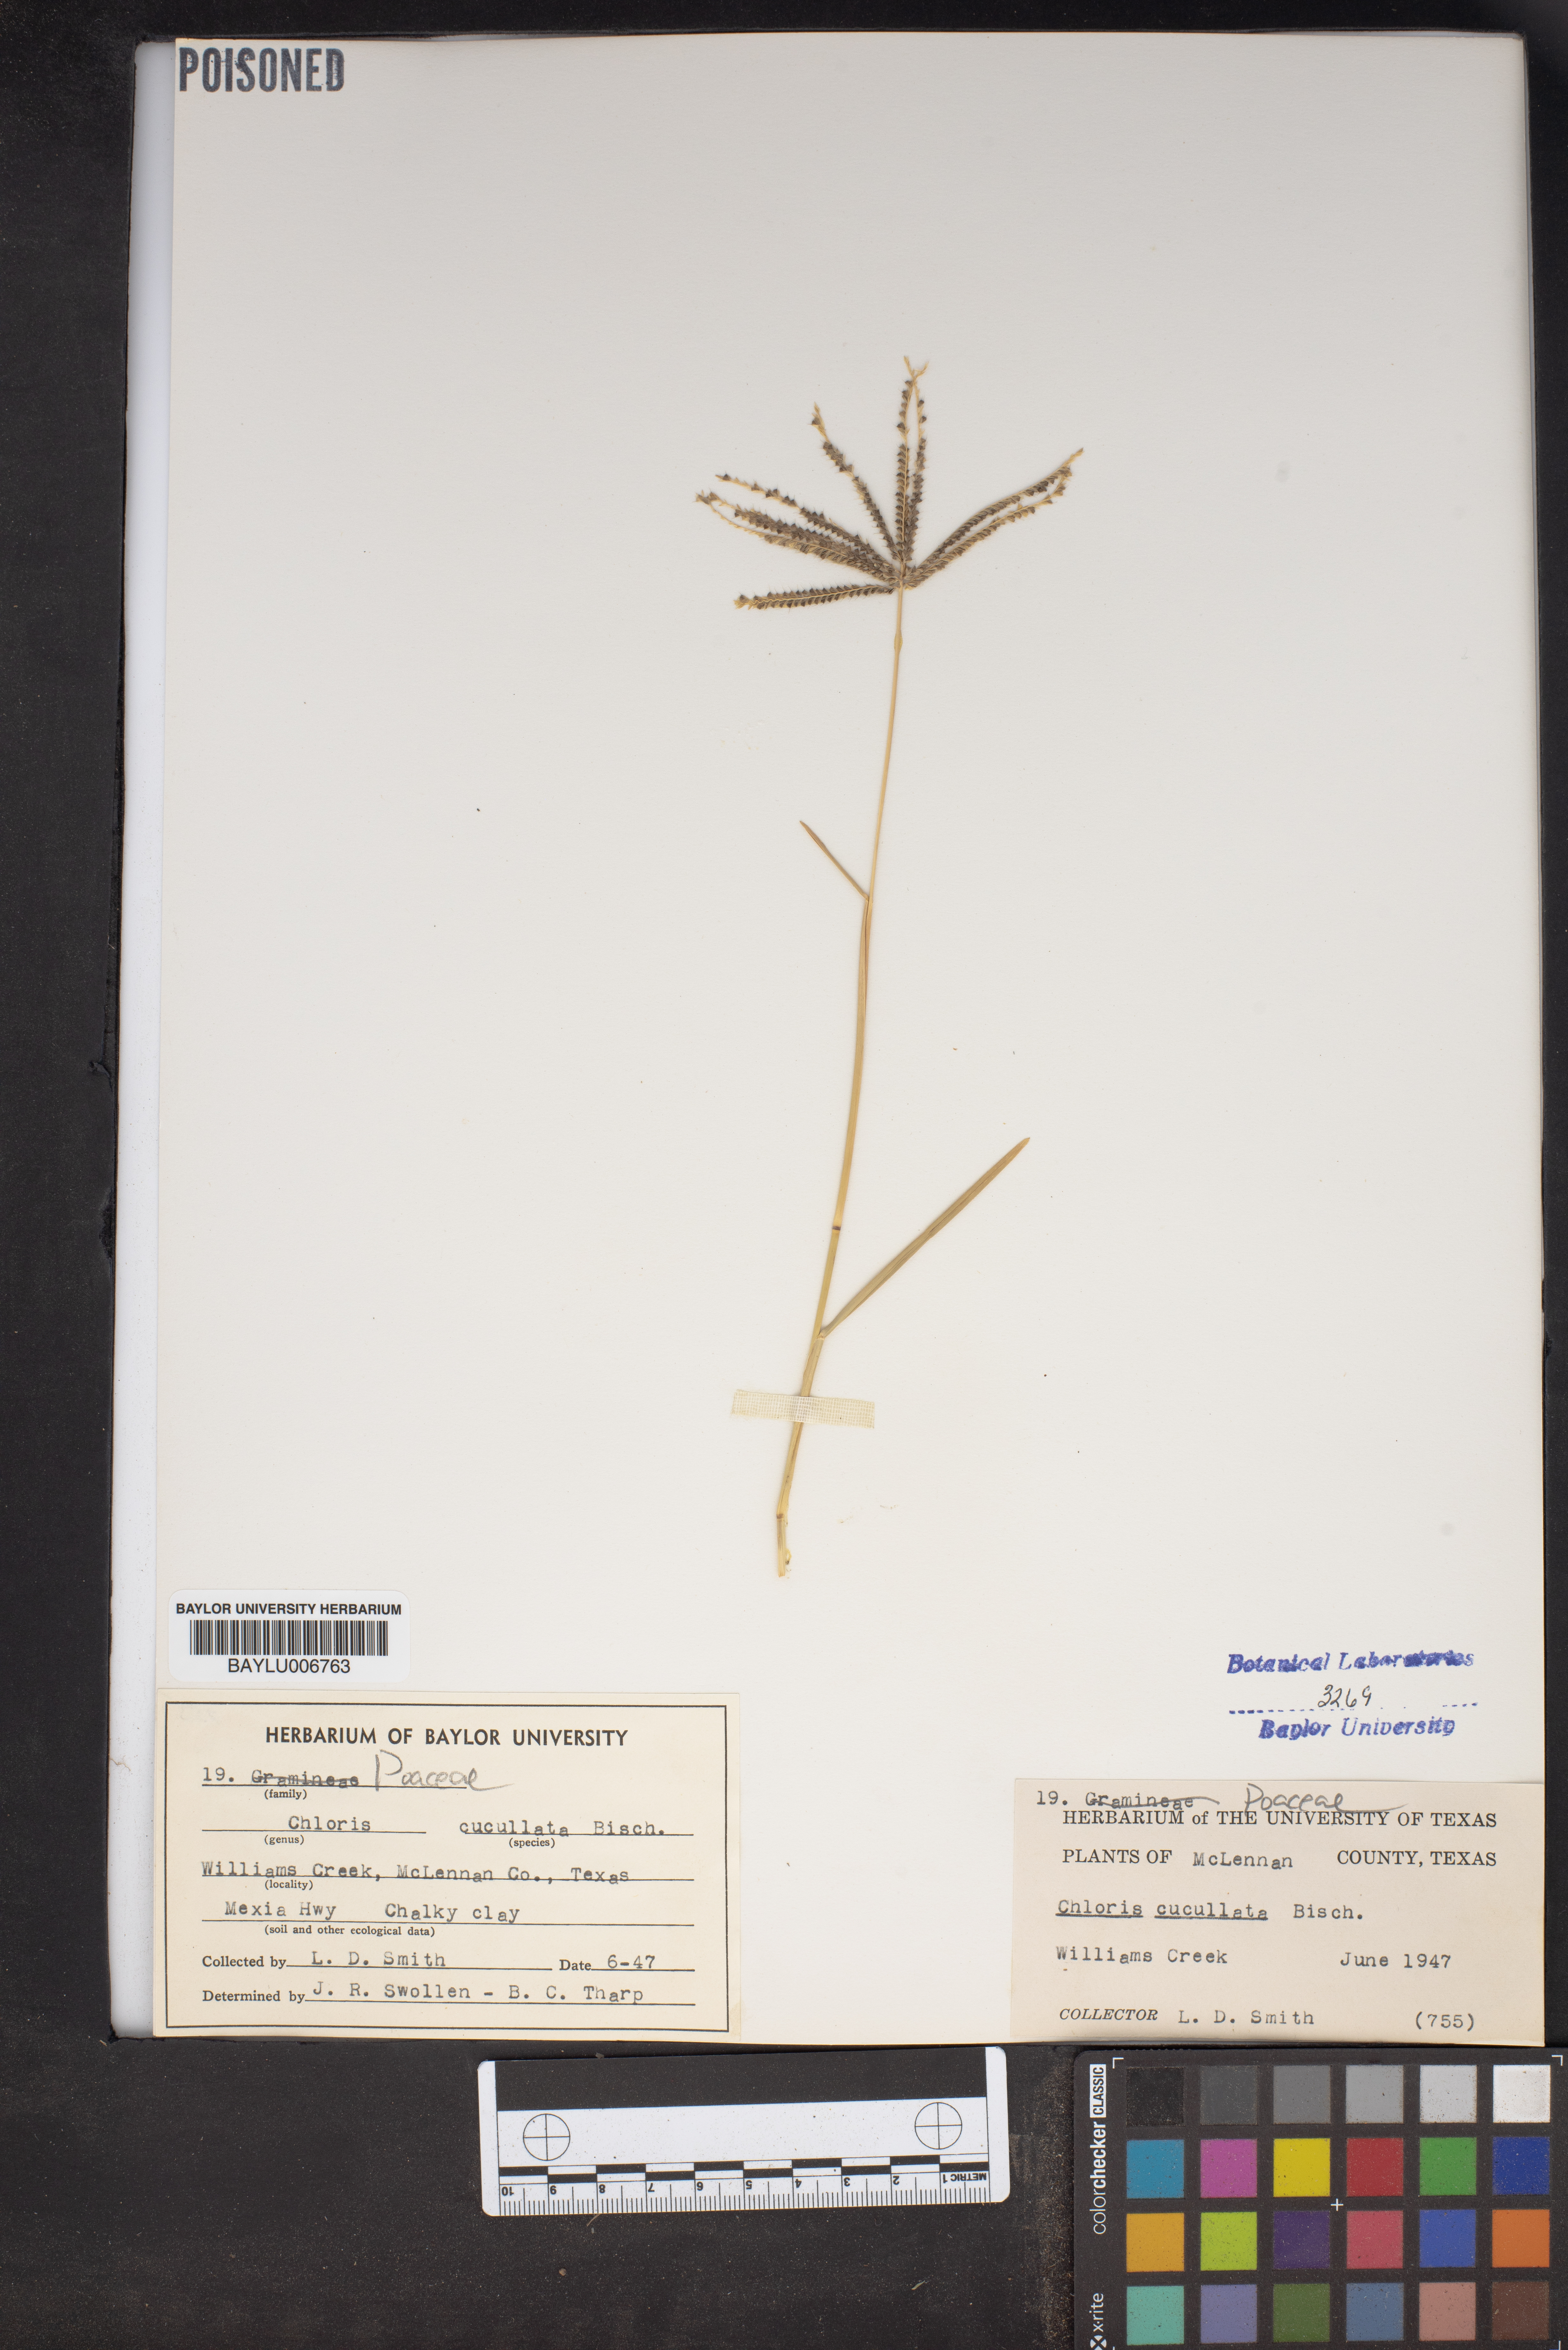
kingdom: Plantae
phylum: Tracheophyta
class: Liliopsida
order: Poales
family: Poaceae
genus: Chloris
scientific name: Chloris cucullata
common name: Hooded windmill grass
